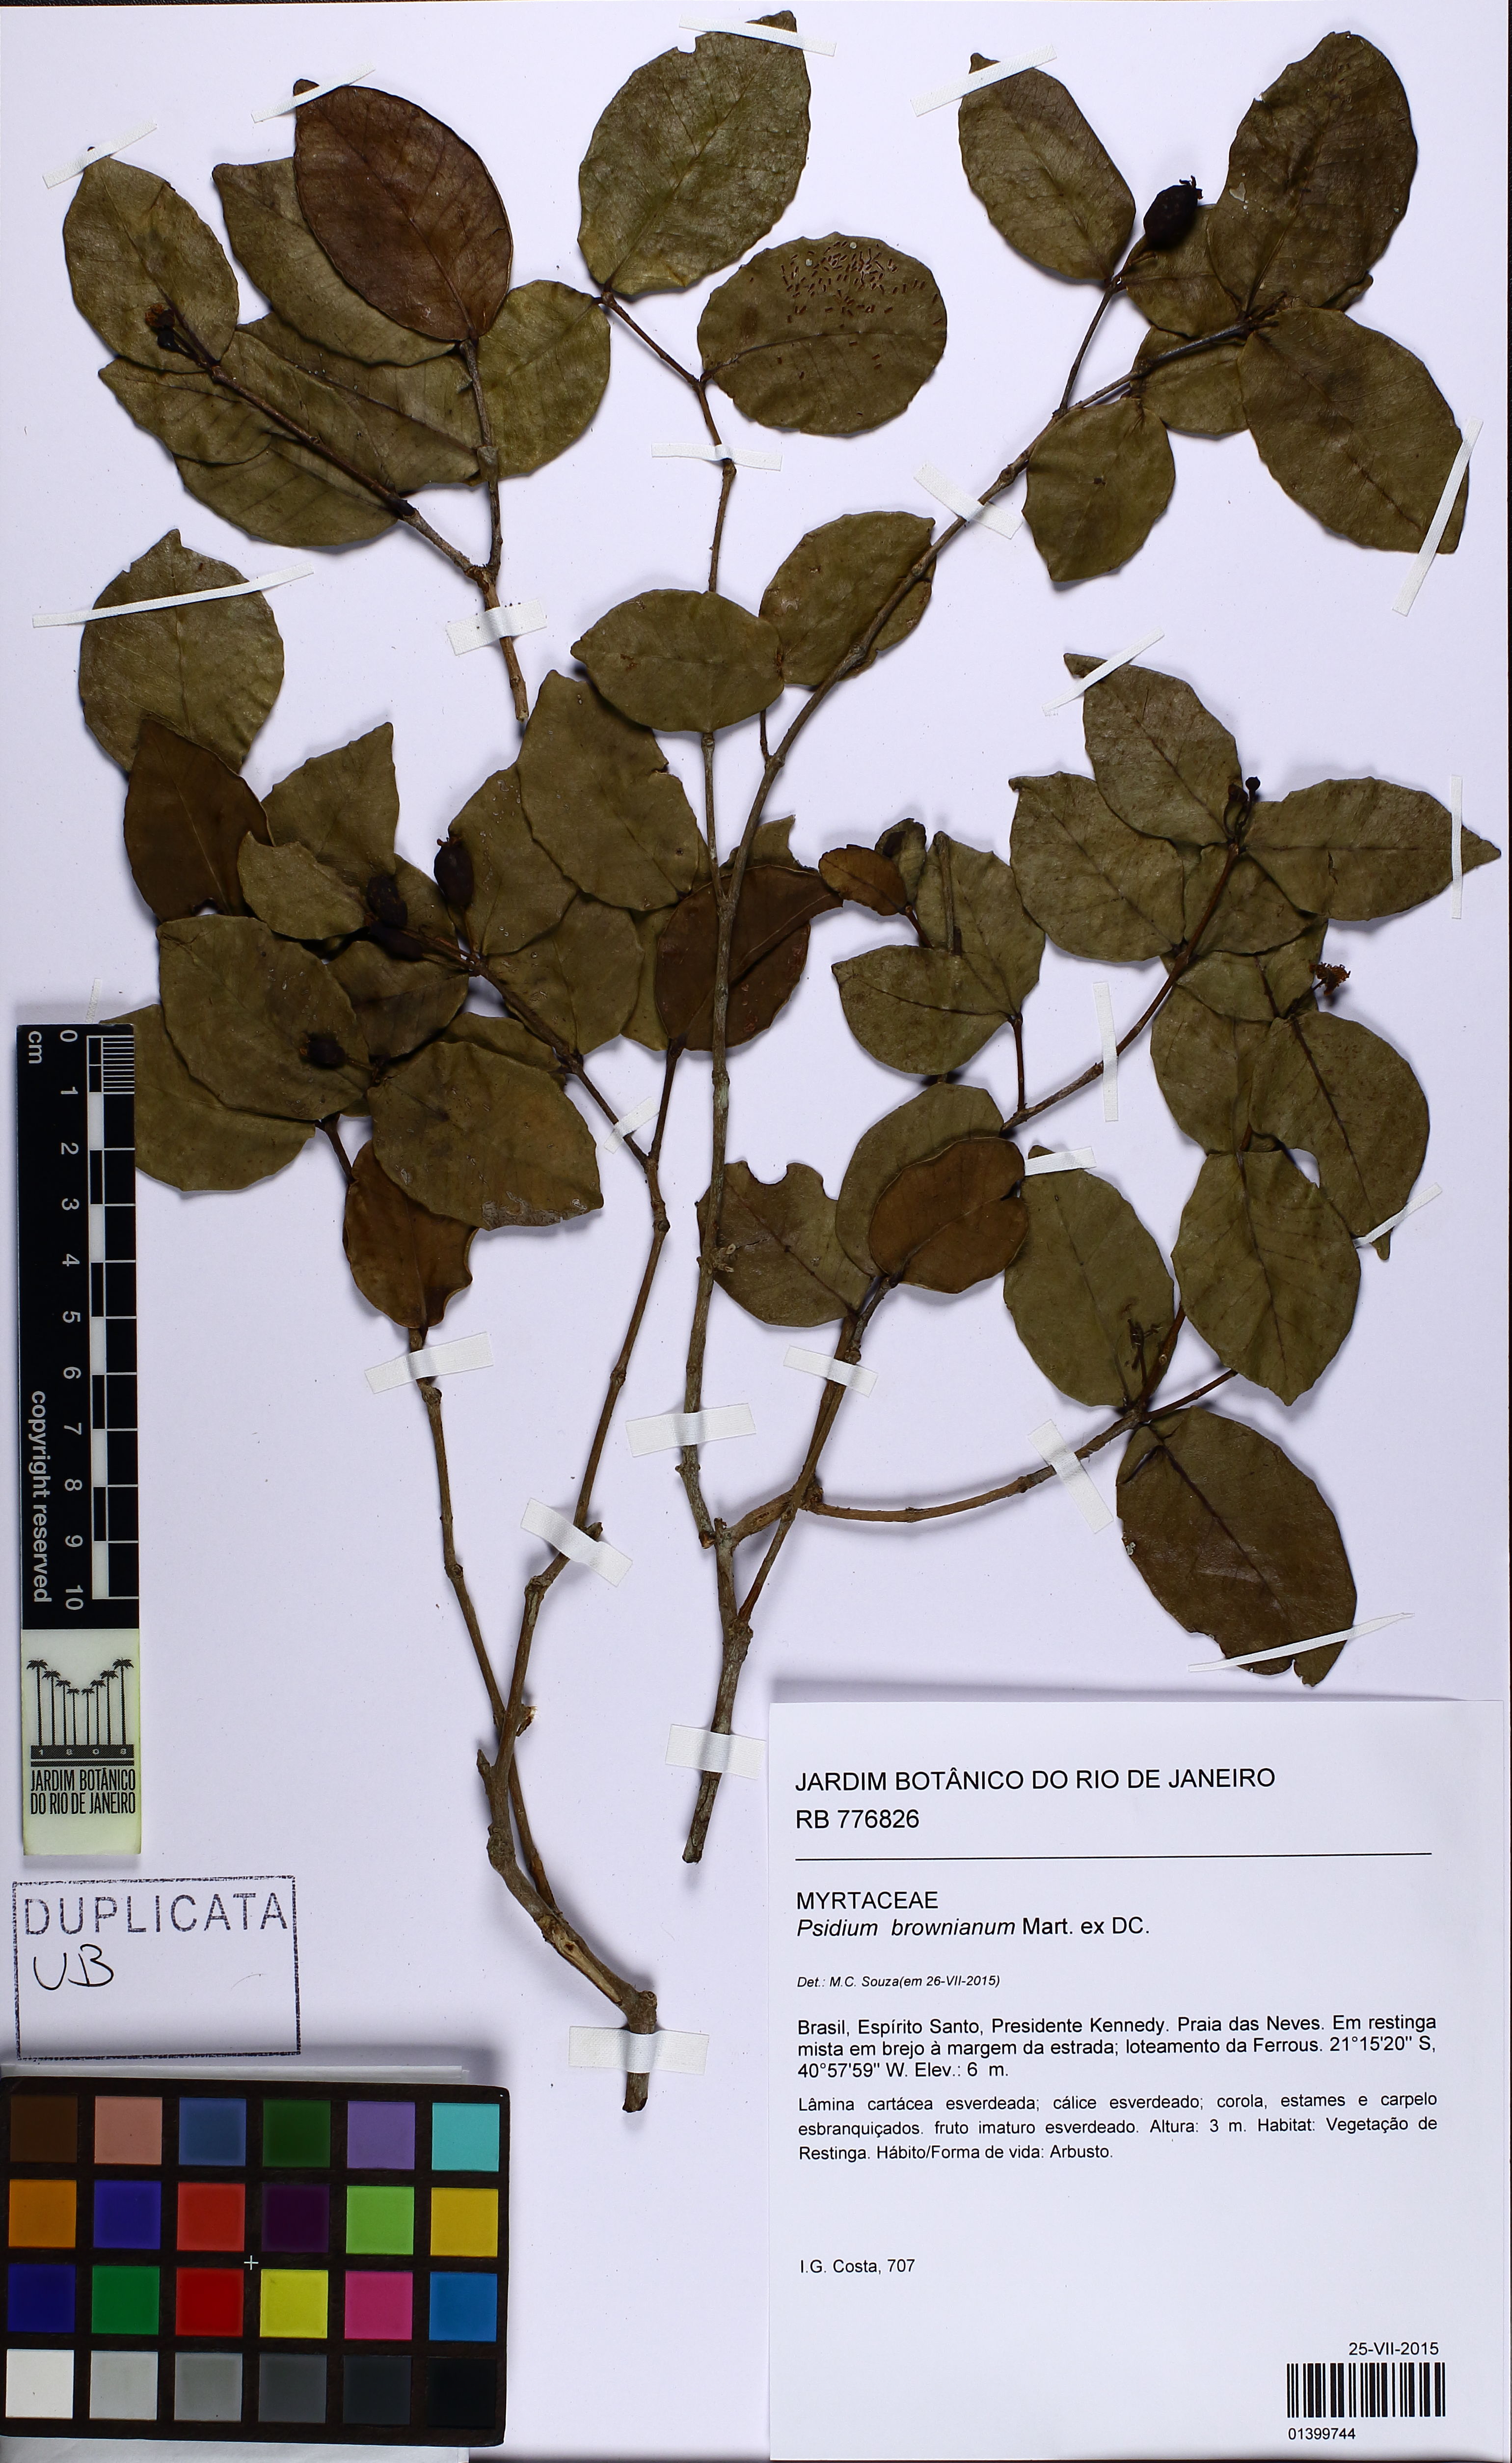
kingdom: Plantae
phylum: Tracheophyta
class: Magnoliopsida
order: Myrtales
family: Myrtaceae
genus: Psidium
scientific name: Psidium brownianum
